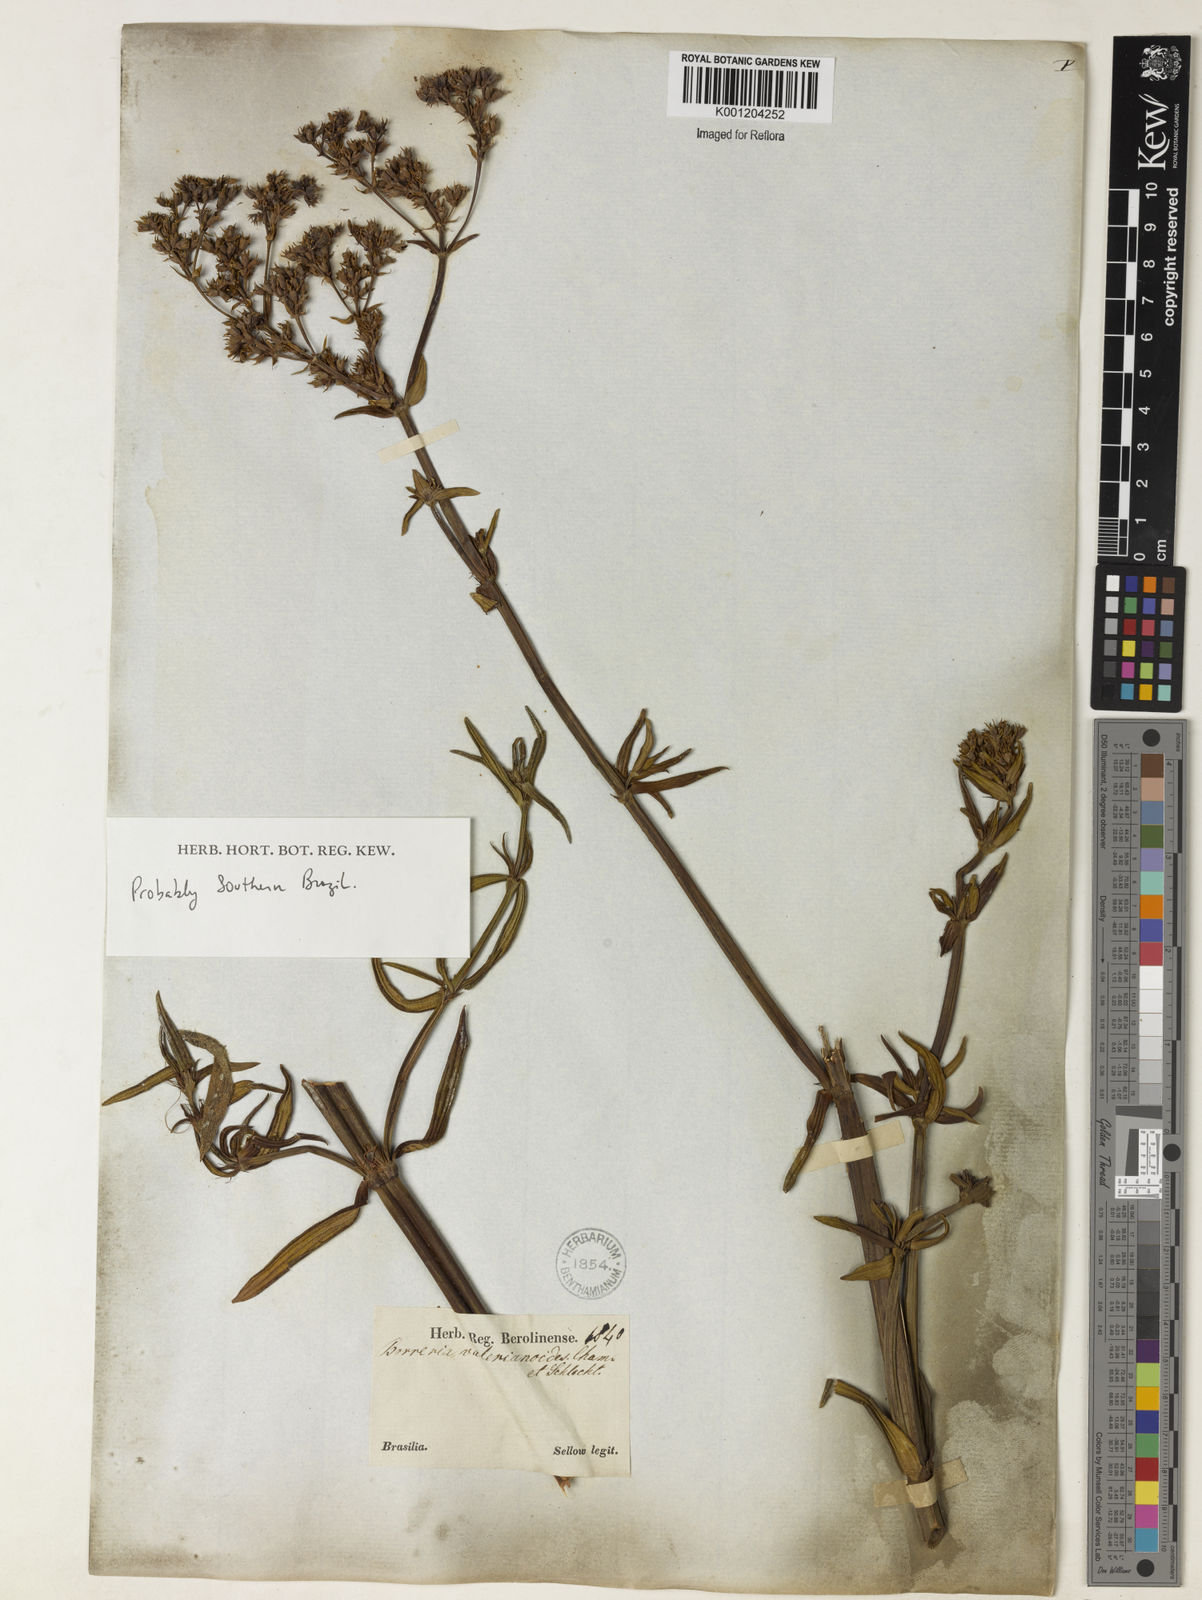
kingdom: Plantae
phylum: Tracheophyta
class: Magnoliopsida
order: Gentianales
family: Rubiaceae
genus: Galianthe
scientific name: Galianthe valerianoides
